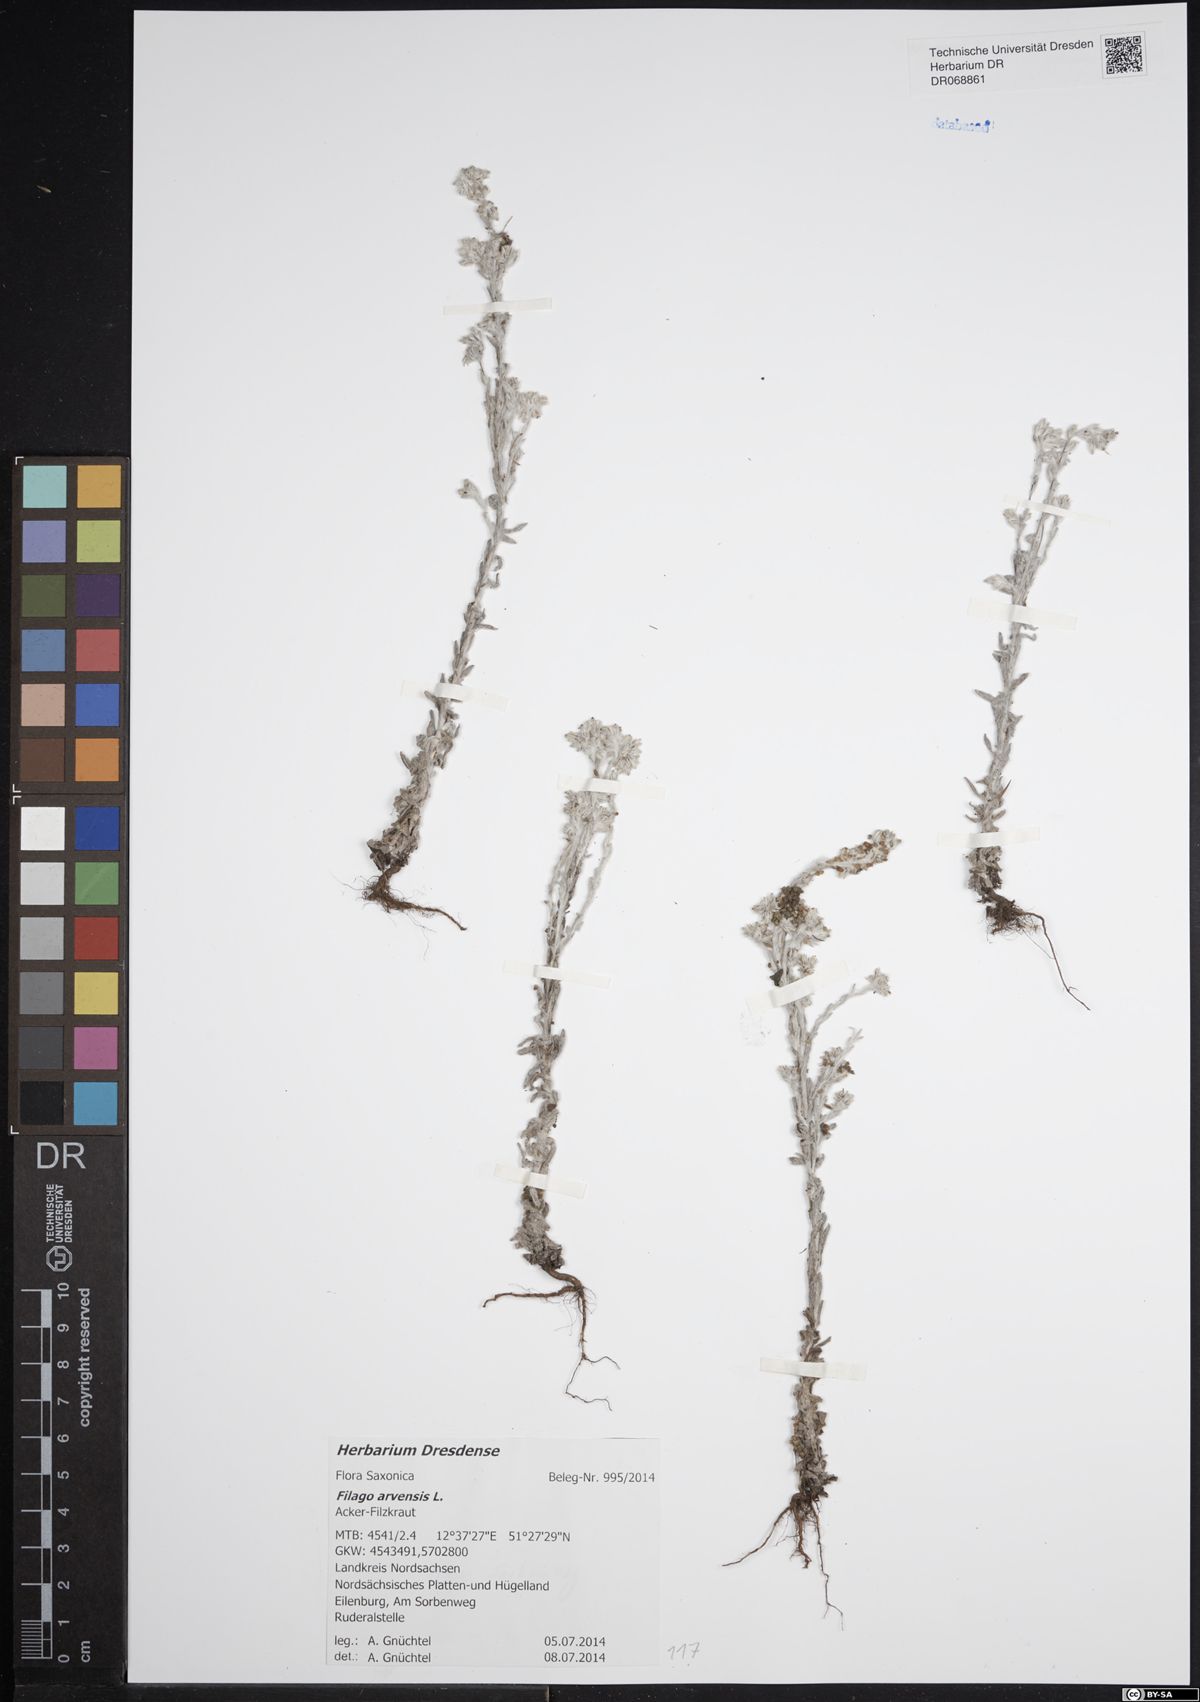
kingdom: Plantae
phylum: Tracheophyta
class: Magnoliopsida
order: Asterales
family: Asteraceae
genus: Filago
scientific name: Filago arvensis
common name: Field cudweed
